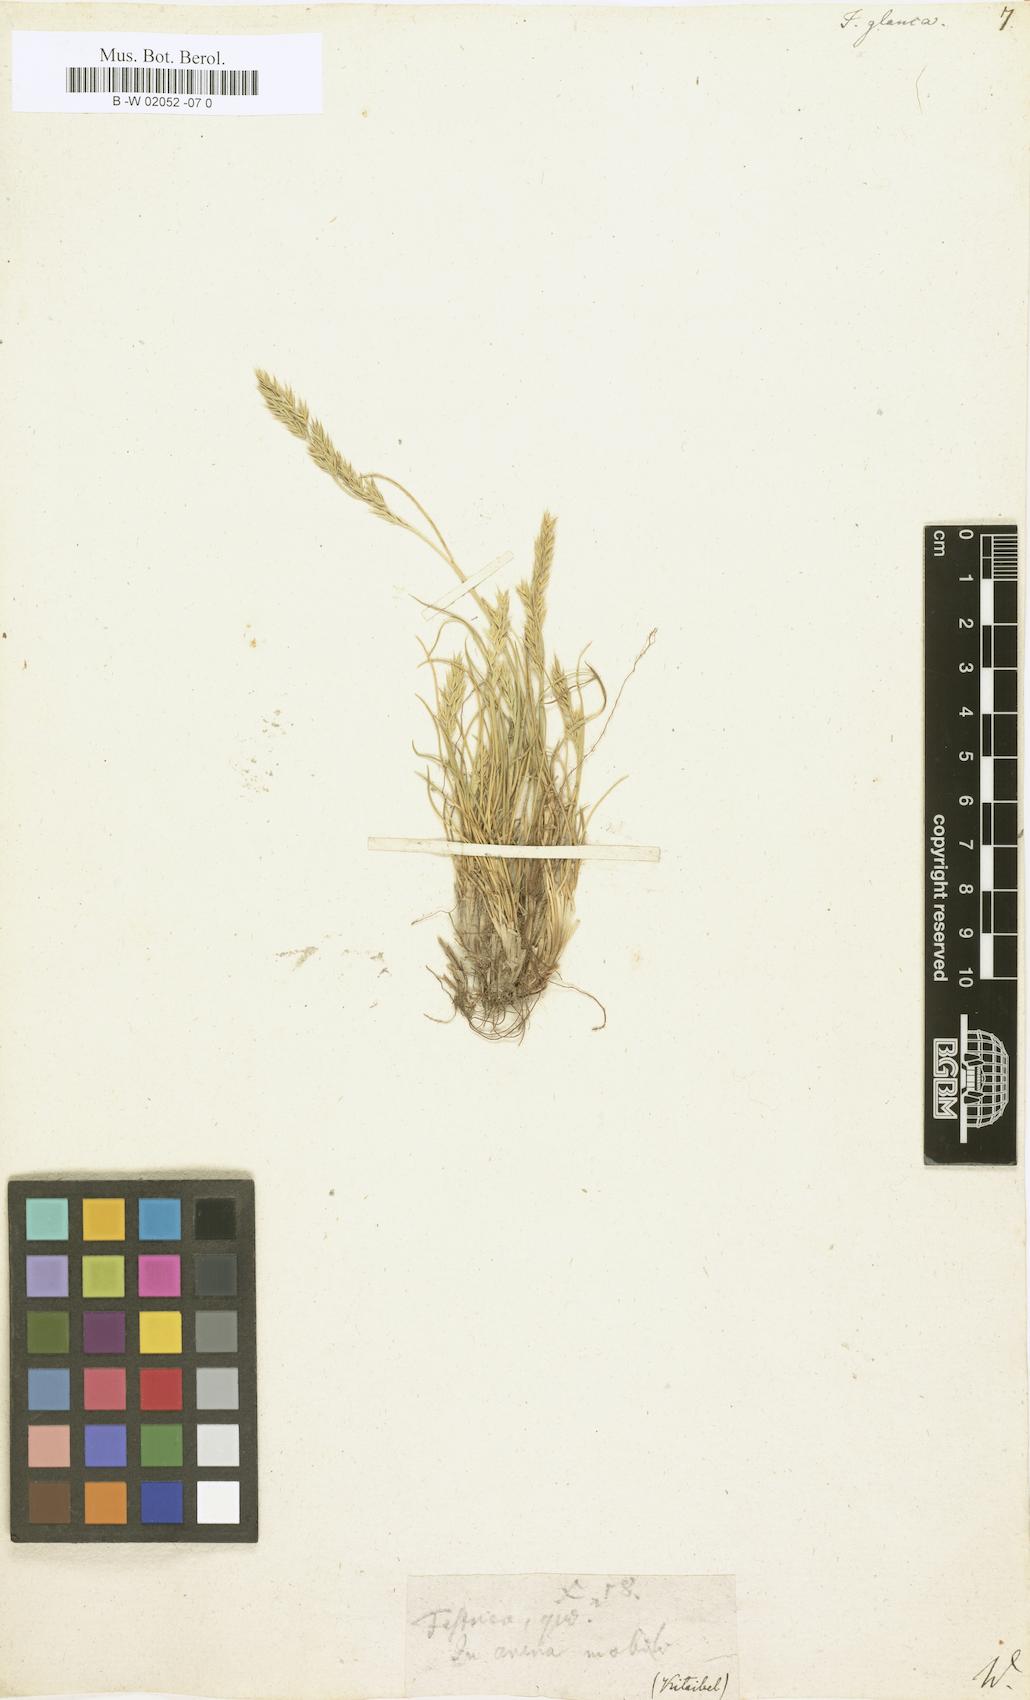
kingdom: Plantae
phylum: Tracheophyta
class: Liliopsida
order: Poales
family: Poaceae
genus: Festuca
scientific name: Festuca glauca
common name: Blue fescue
